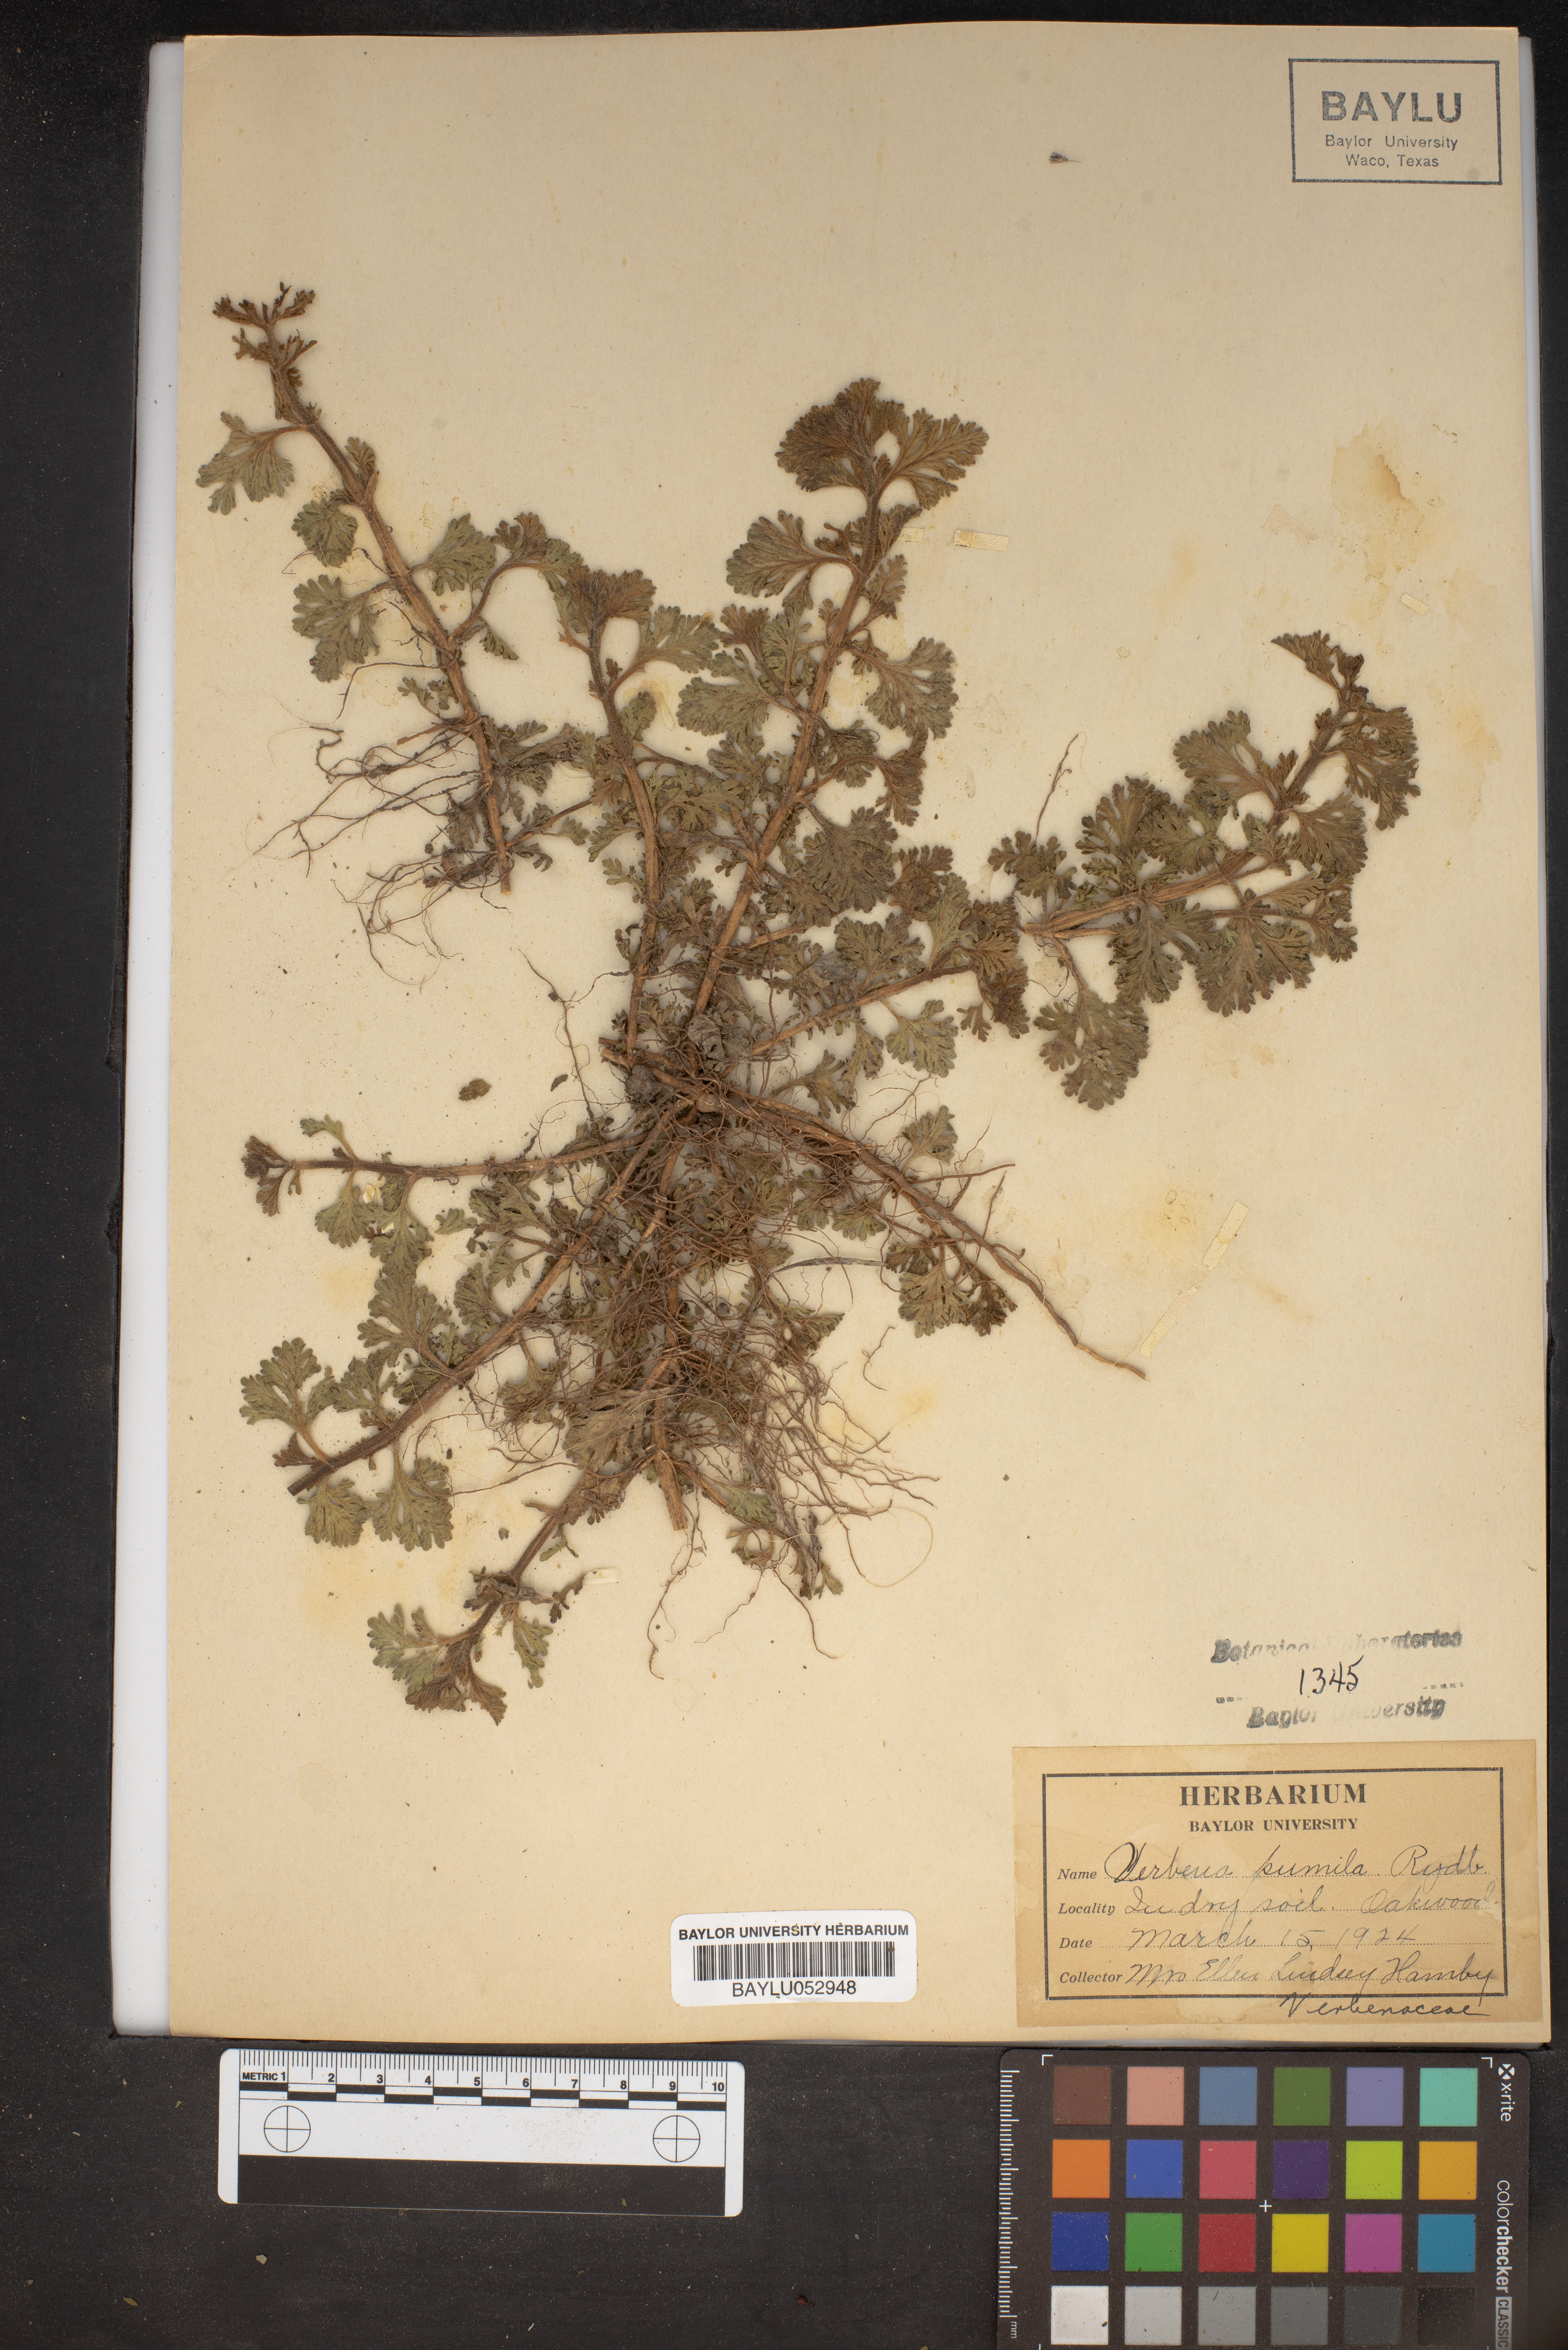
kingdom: Plantae
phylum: Tracheophyta
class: Magnoliopsida
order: Lamiales
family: Verbenaceae
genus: Verbena
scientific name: Verbena pumila
